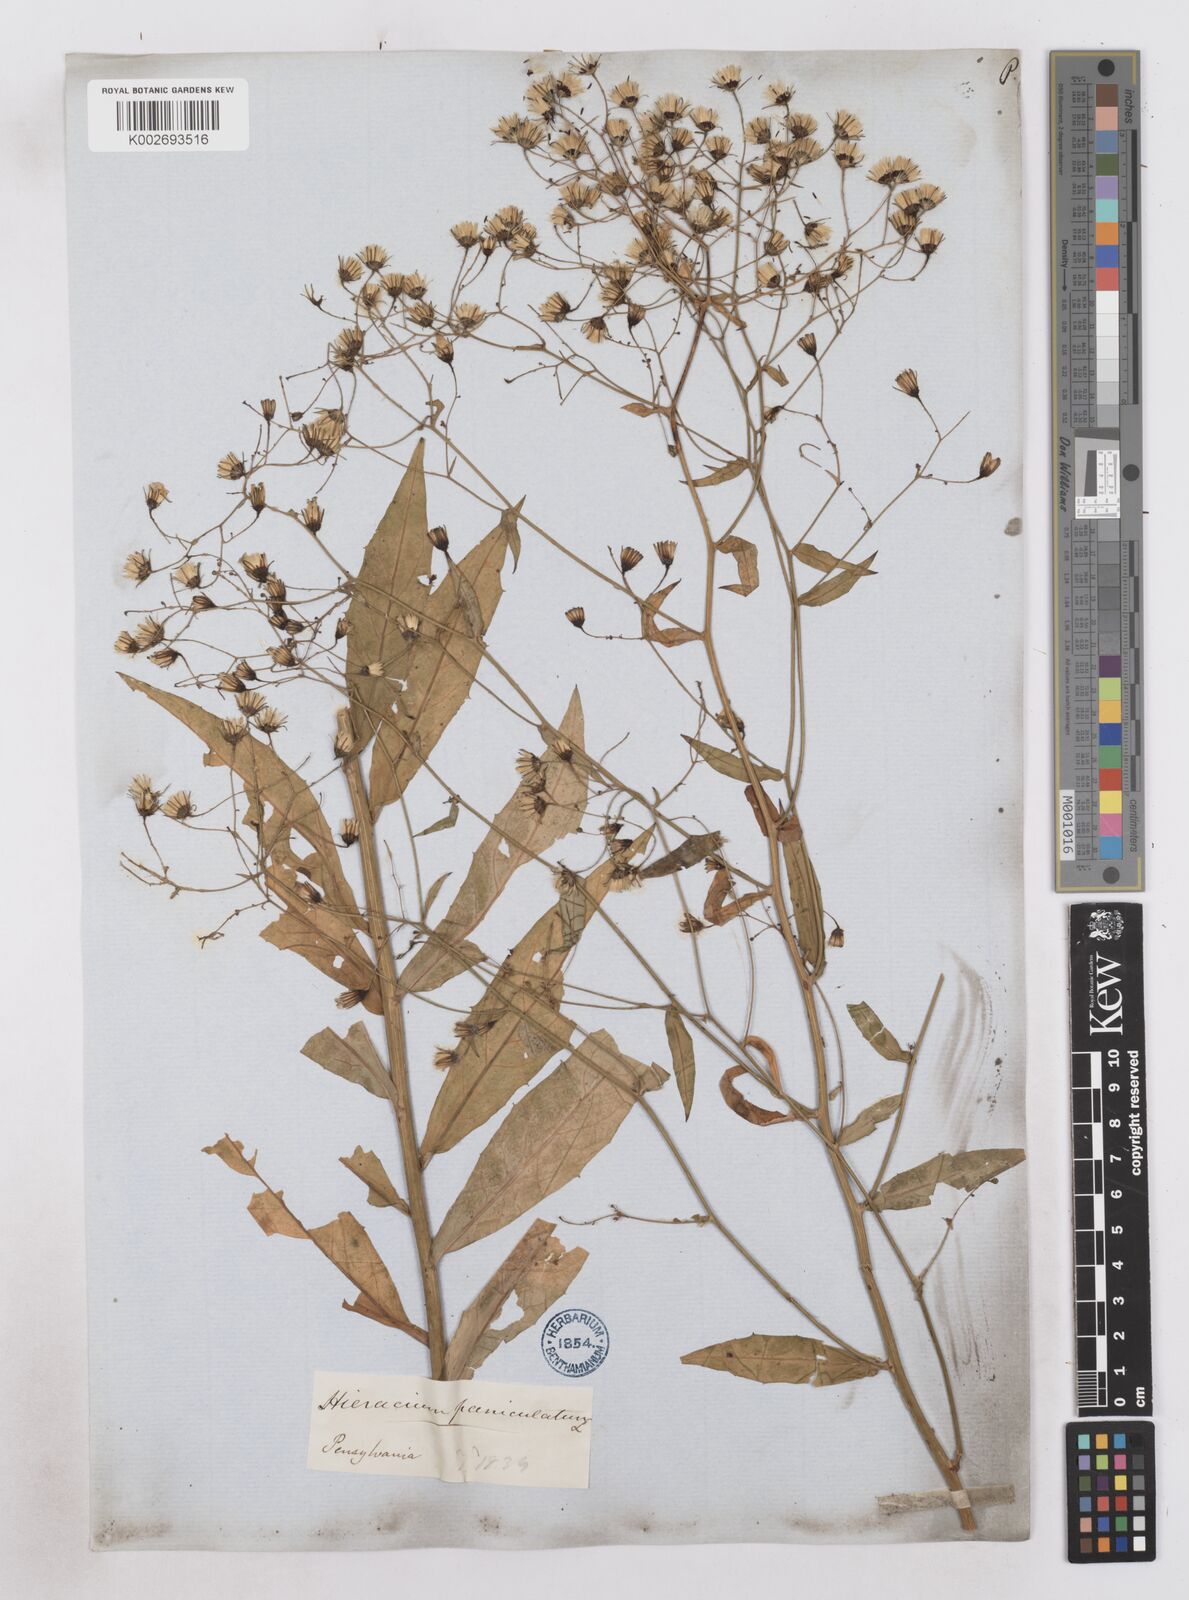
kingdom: Plantae
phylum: Tracheophyta
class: Magnoliopsida
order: Asterales
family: Asteraceae
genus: Hieracium
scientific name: Hieracium paniculatum
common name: Allegheny hawkweed
